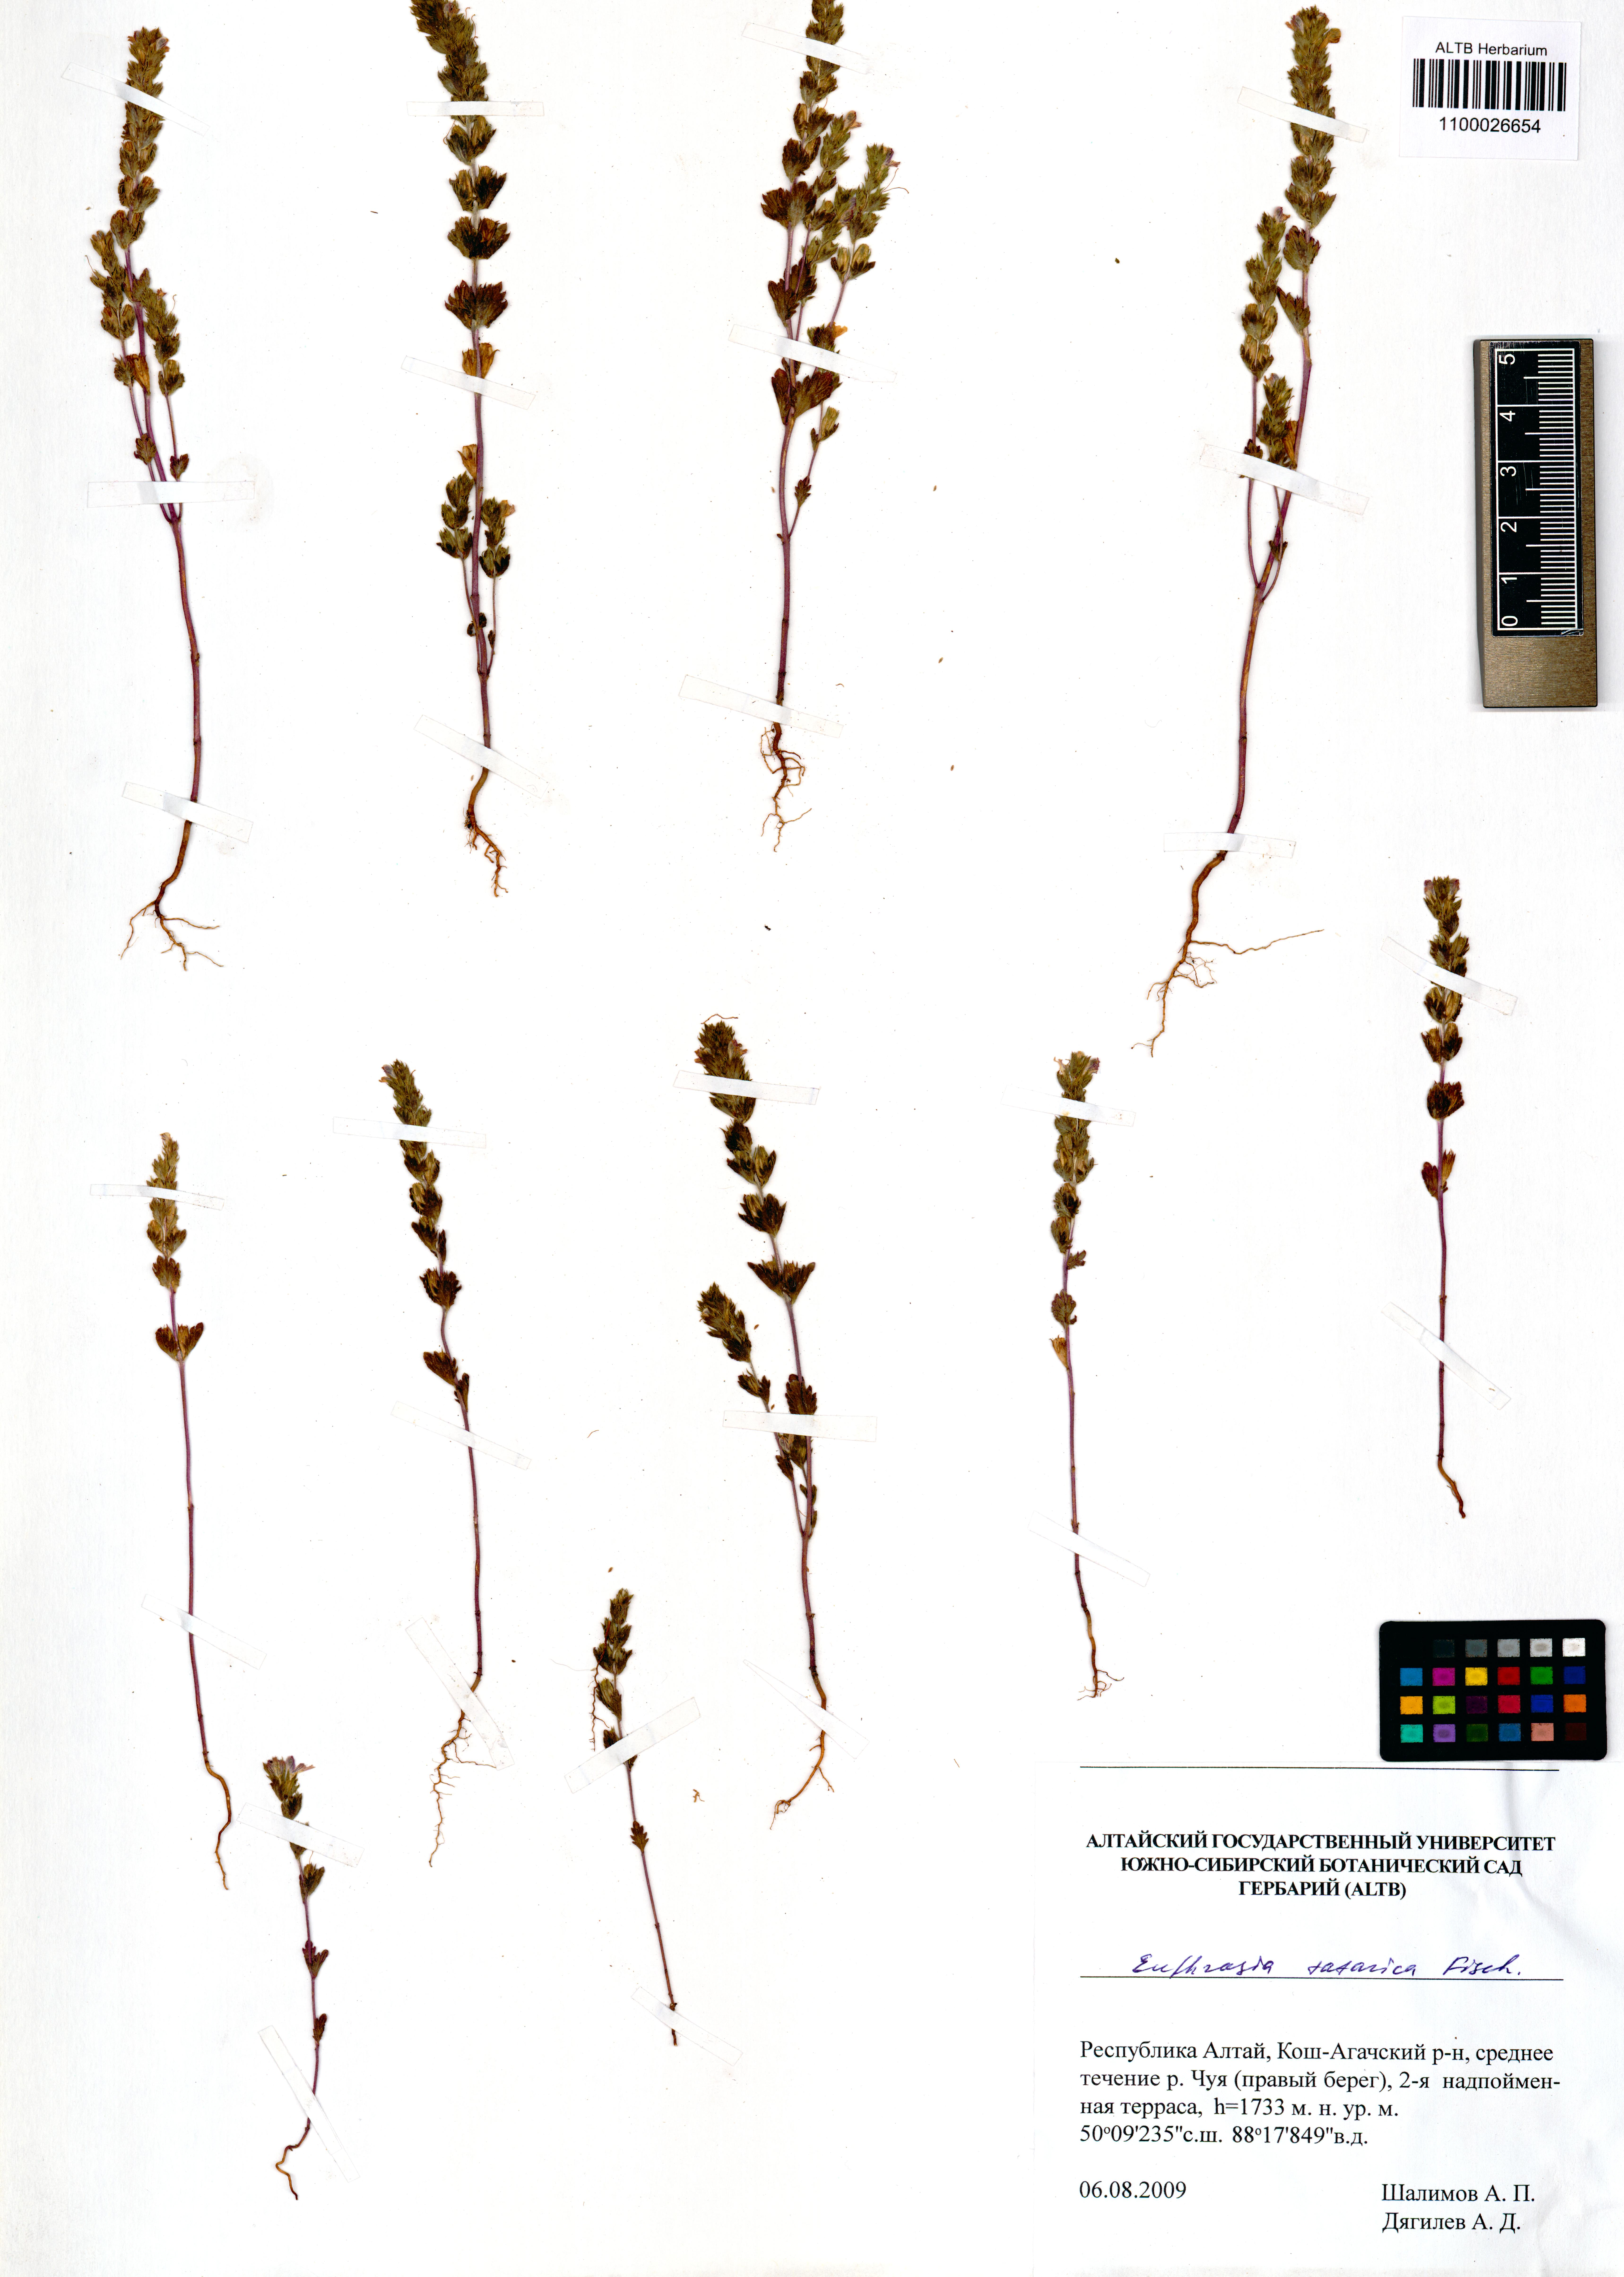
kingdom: Plantae
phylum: Tracheophyta
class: Magnoliopsida
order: Lamiales
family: Orobanchaceae
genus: Euphrasia
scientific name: Euphrasia pectinata
